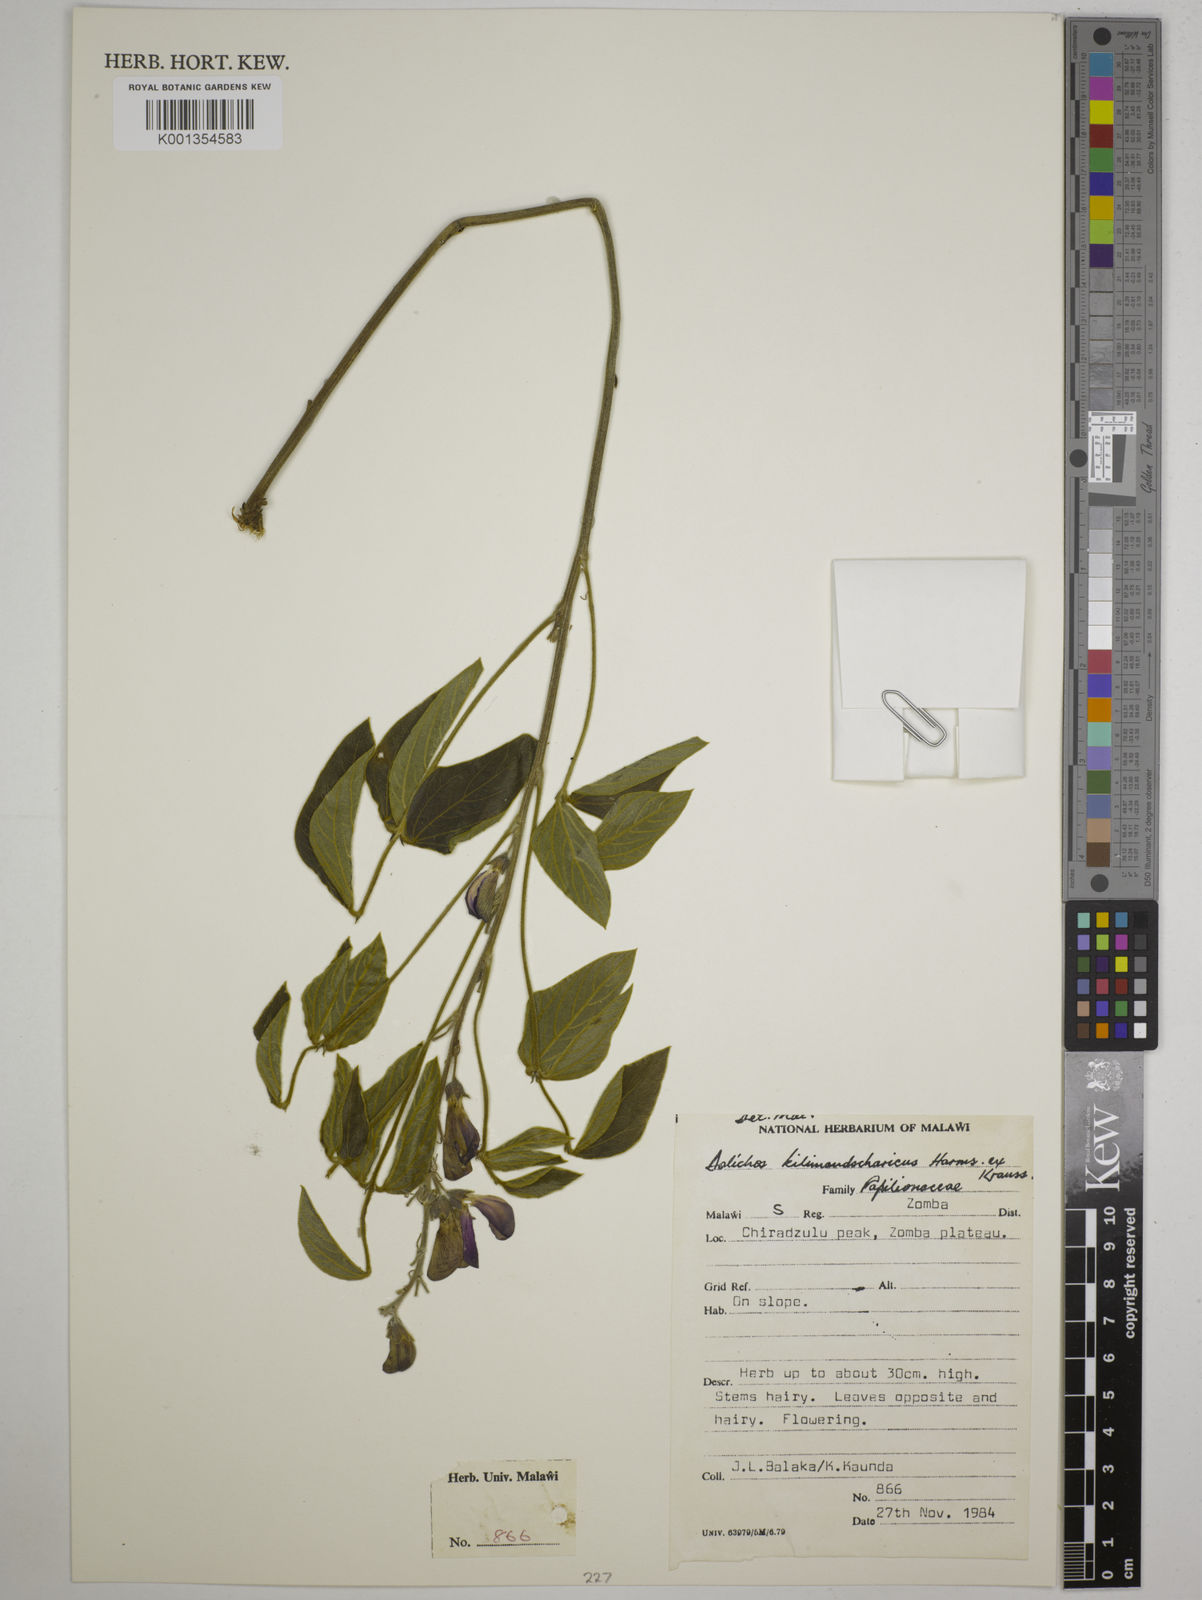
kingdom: Plantae
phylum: Tracheophyta
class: Magnoliopsida
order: Fabales
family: Fabaceae
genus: Dolichos
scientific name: Dolichos kilimandscharicus
